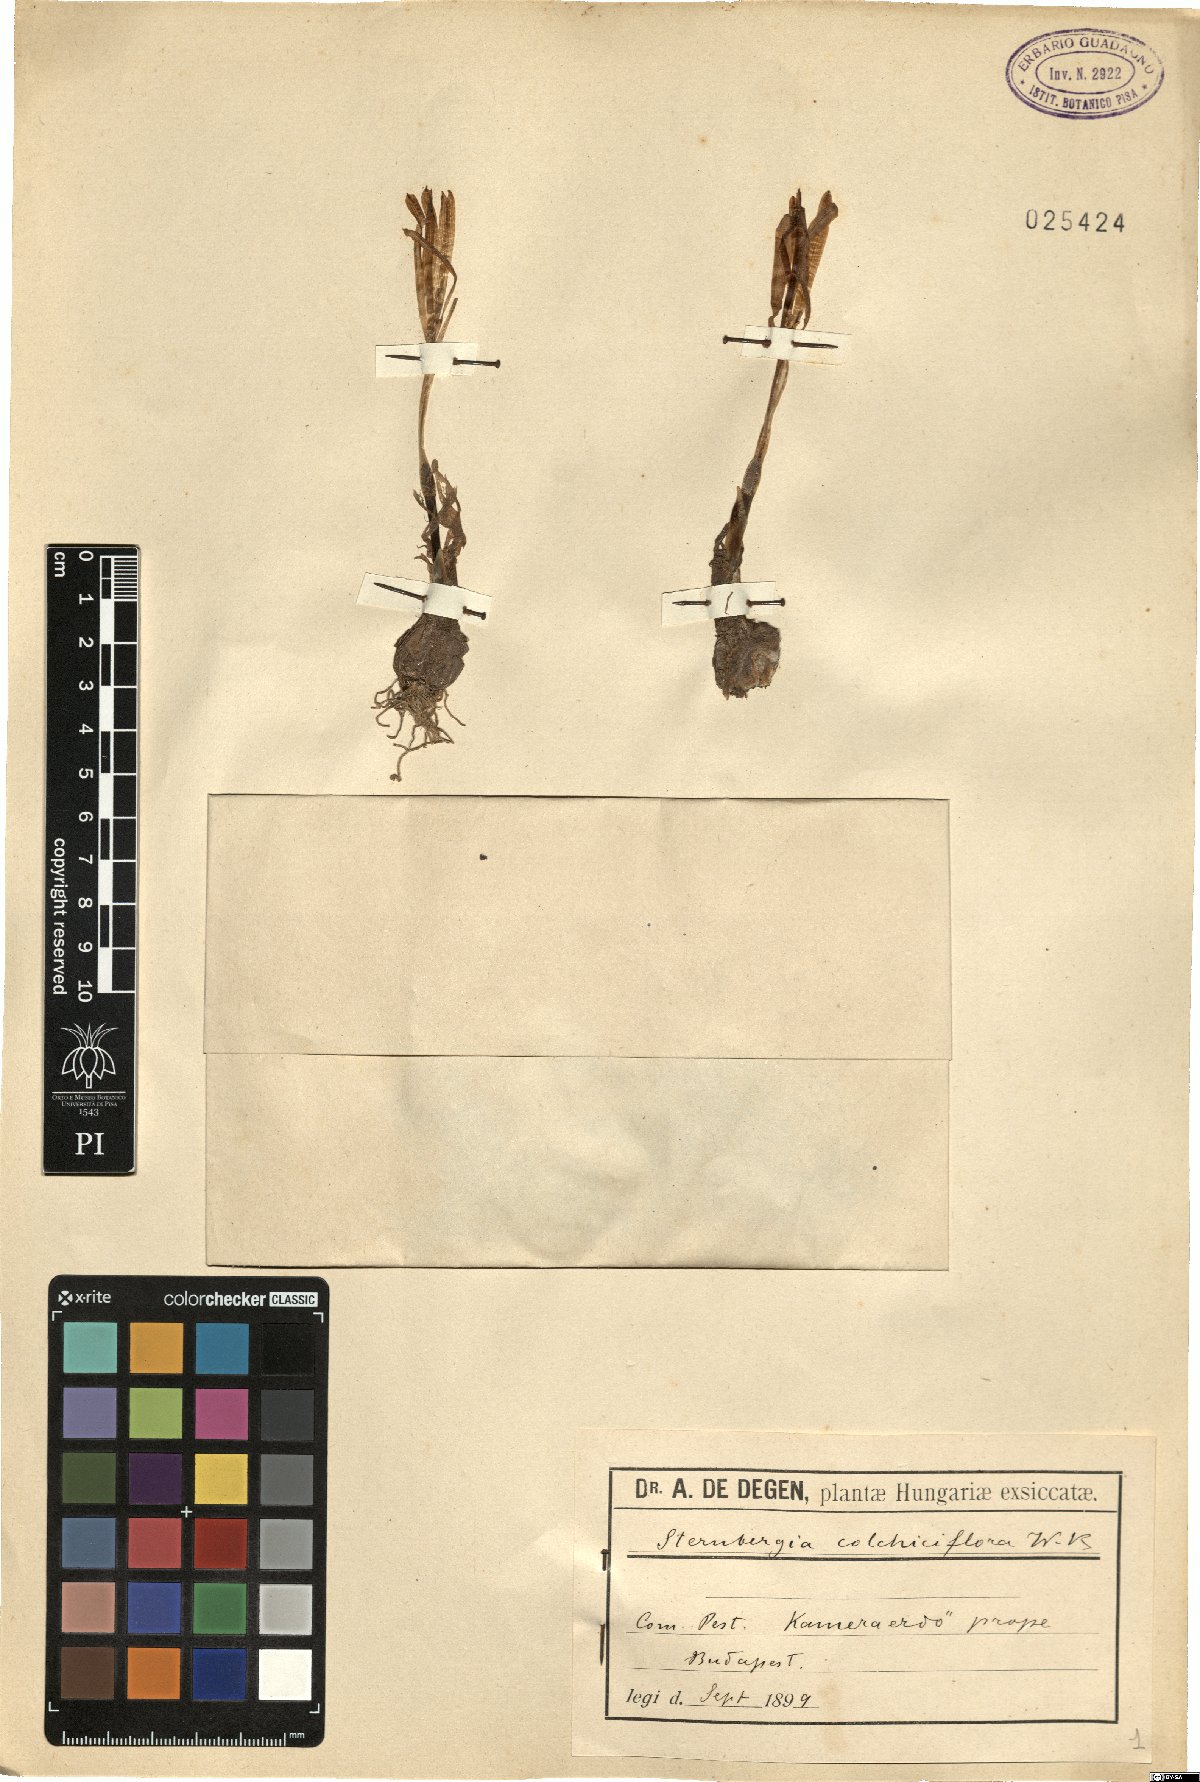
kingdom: Plantae
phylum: Tracheophyta
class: Liliopsida
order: Asparagales
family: Amaryllidaceae
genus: Sternbergia
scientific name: Sternbergia colchiciflora
